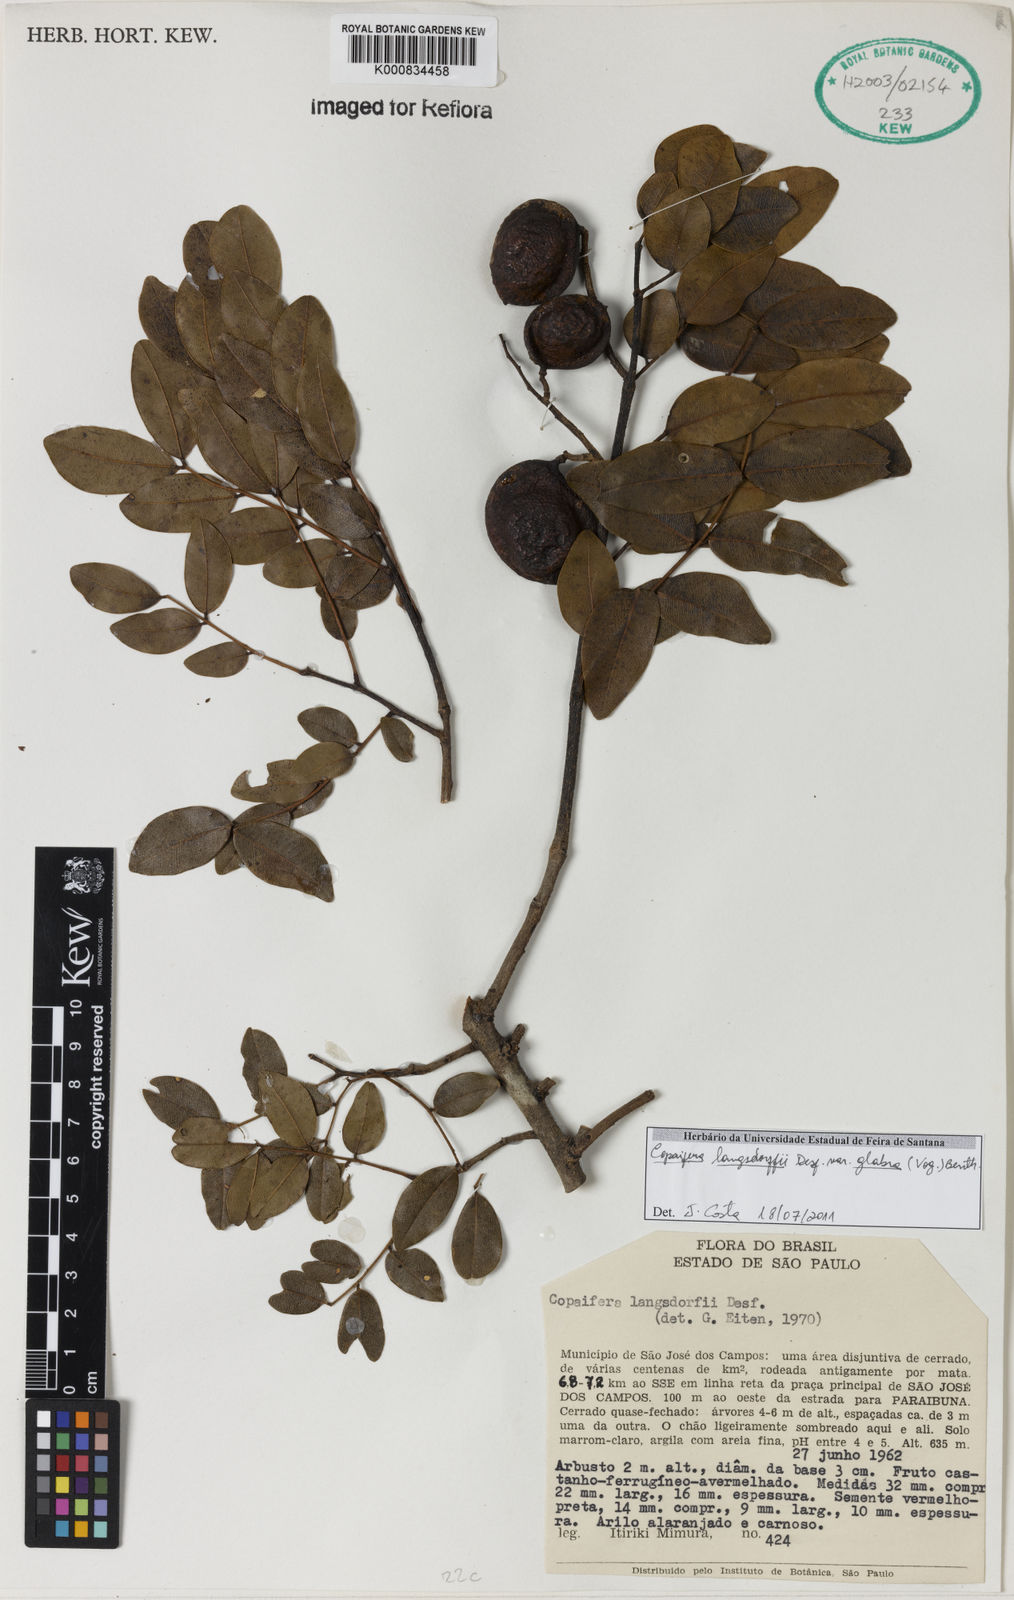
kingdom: Plantae
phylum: Tracheophyta
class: Magnoliopsida
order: Fabales
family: Fabaceae
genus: Copaifera
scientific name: Copaifera langsdorffii
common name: Brazilian diesel tree
